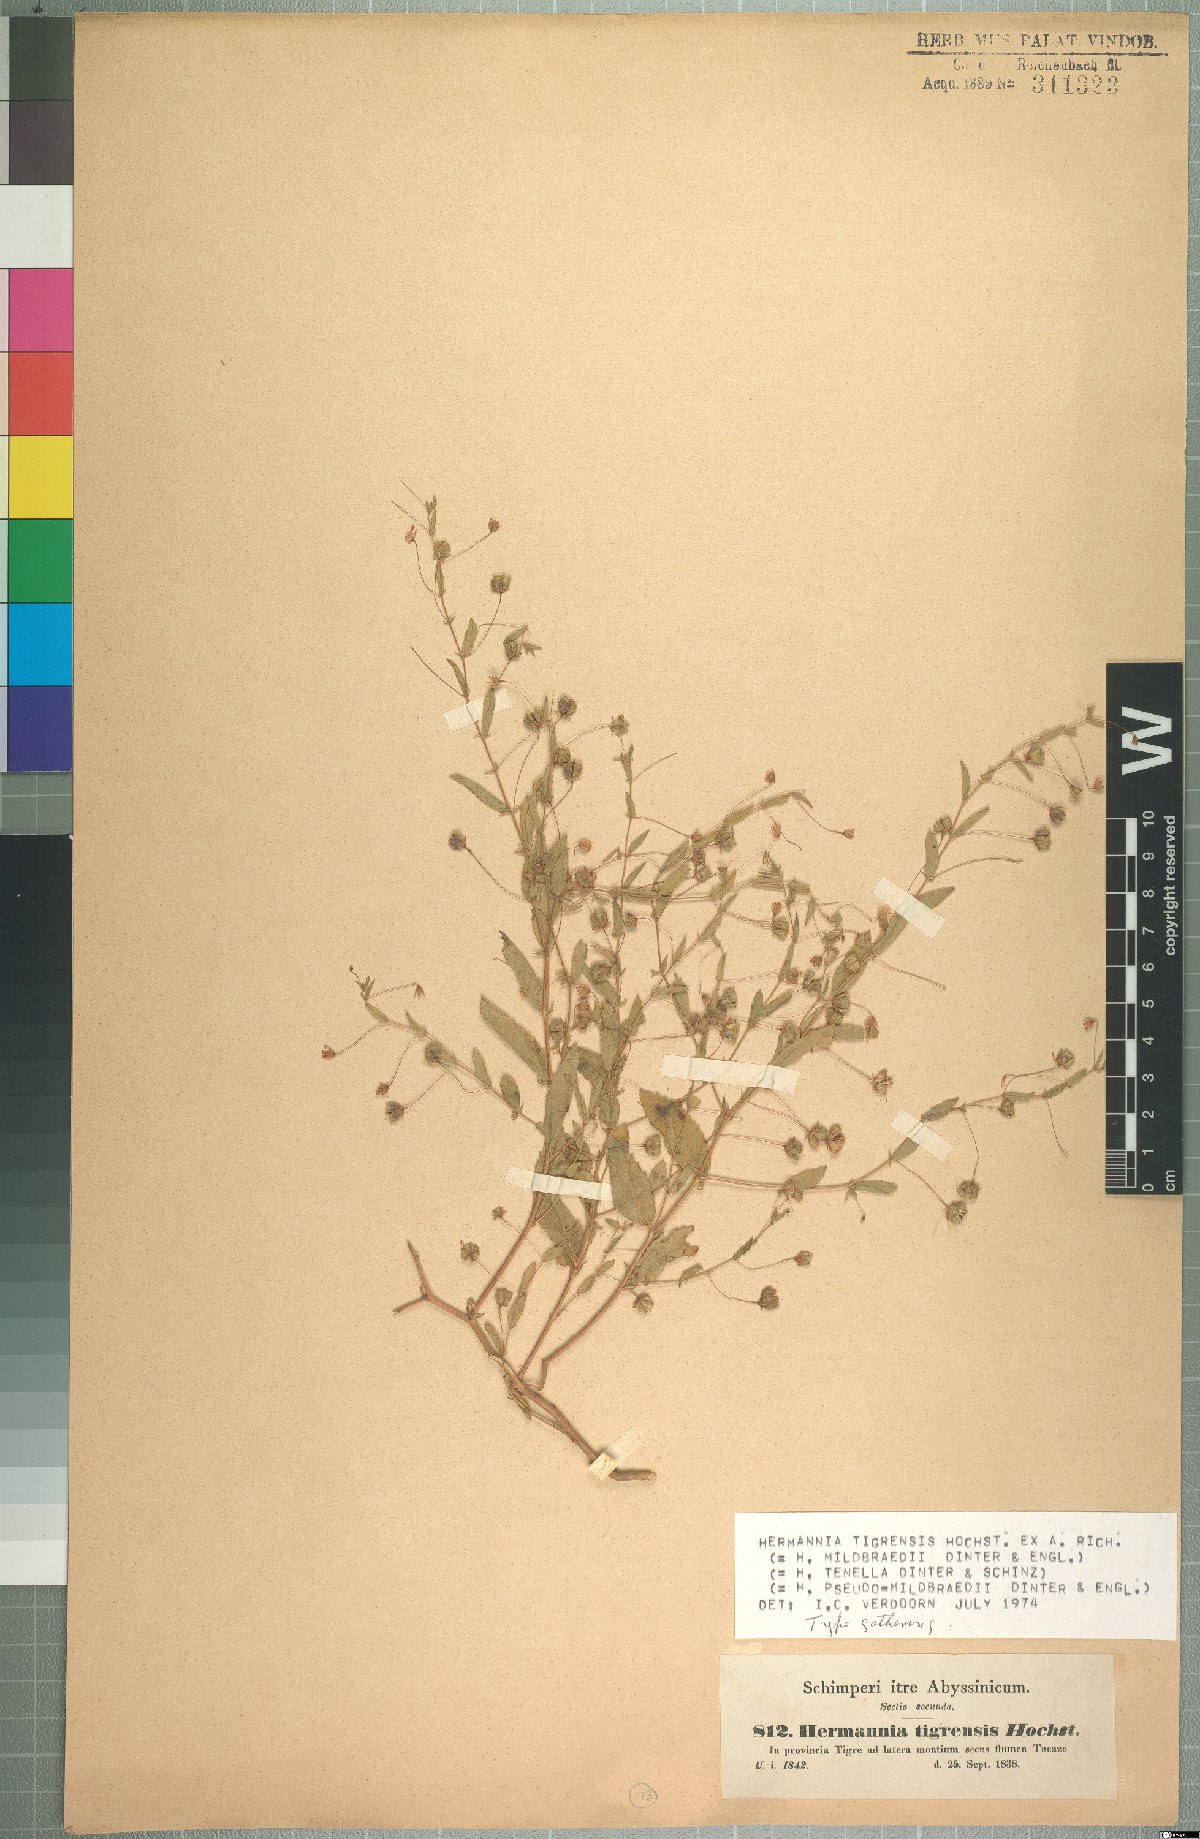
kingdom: Plantae
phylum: Tracheophyta
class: Magnoliopsida
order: Malvales
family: Malvaceae
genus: Hermannia
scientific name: Hermannia tigreensis
